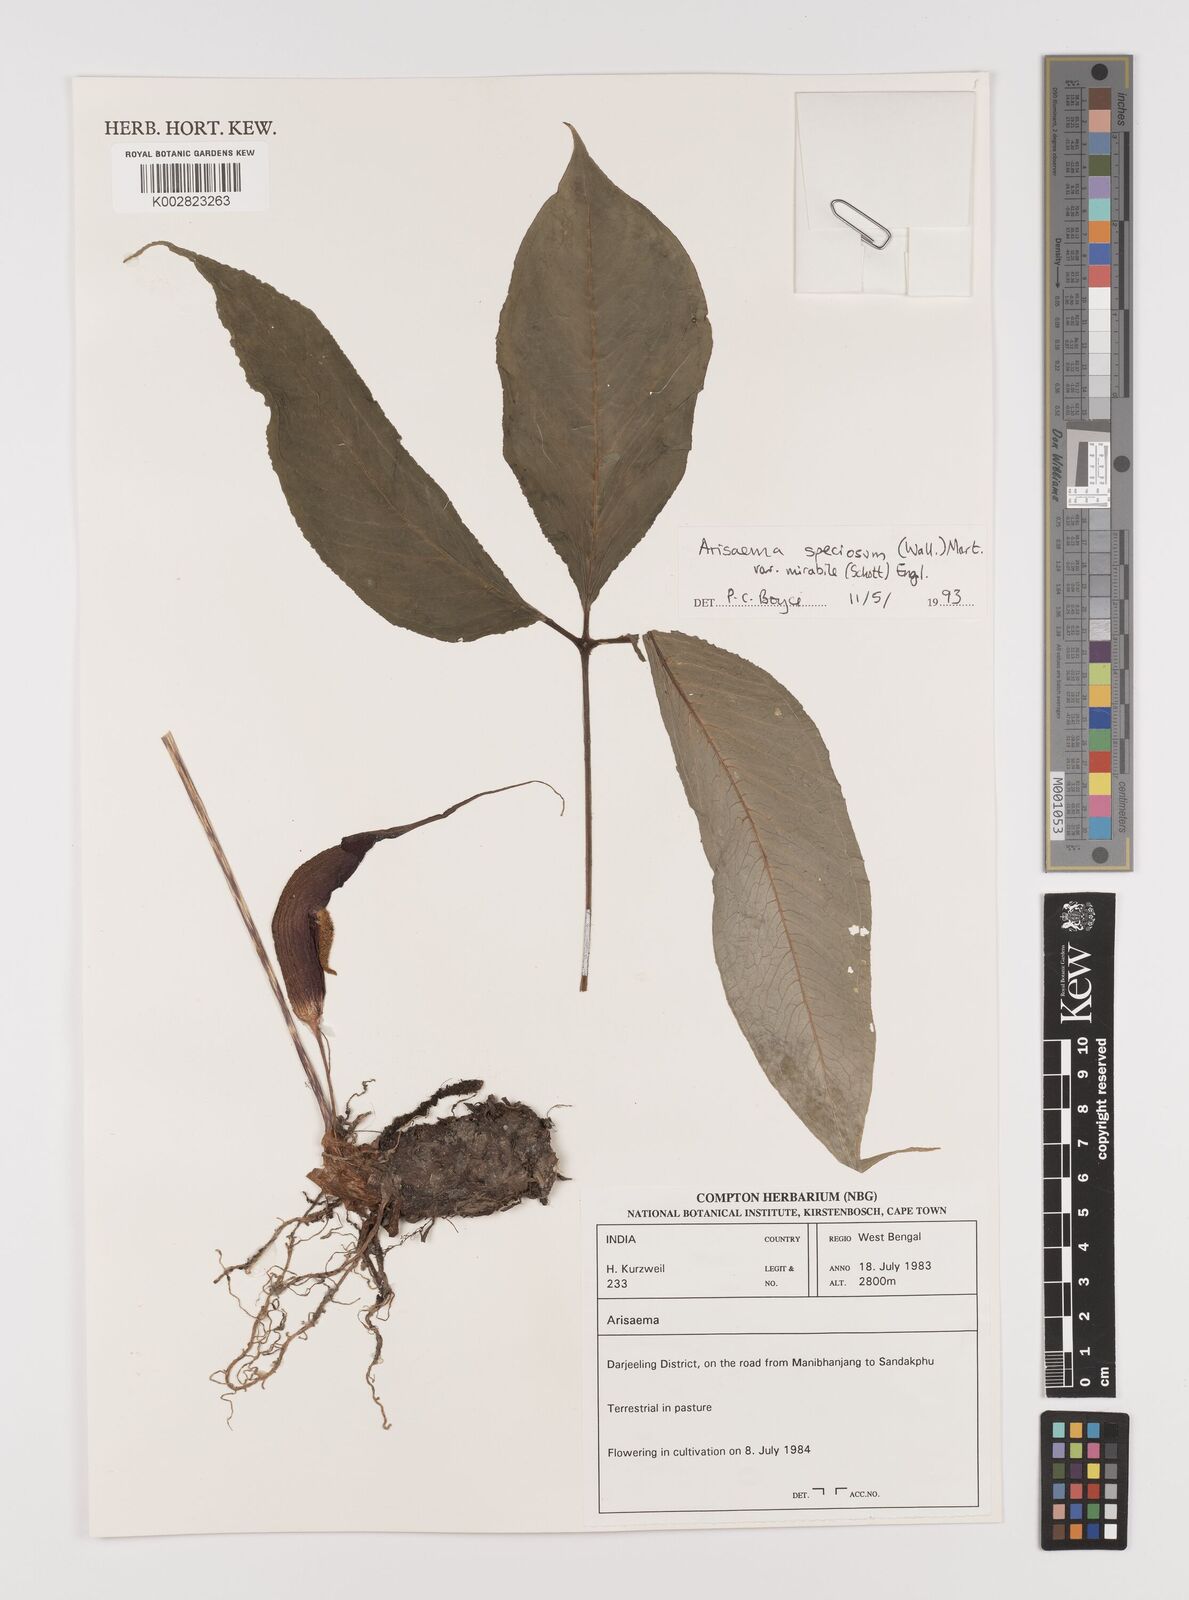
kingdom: Plantae
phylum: Tracheophyta
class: Liliopsida
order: Alismatales
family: Araceae
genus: Arisaema
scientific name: Arisaema speciosum
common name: Showy cobra-lily
